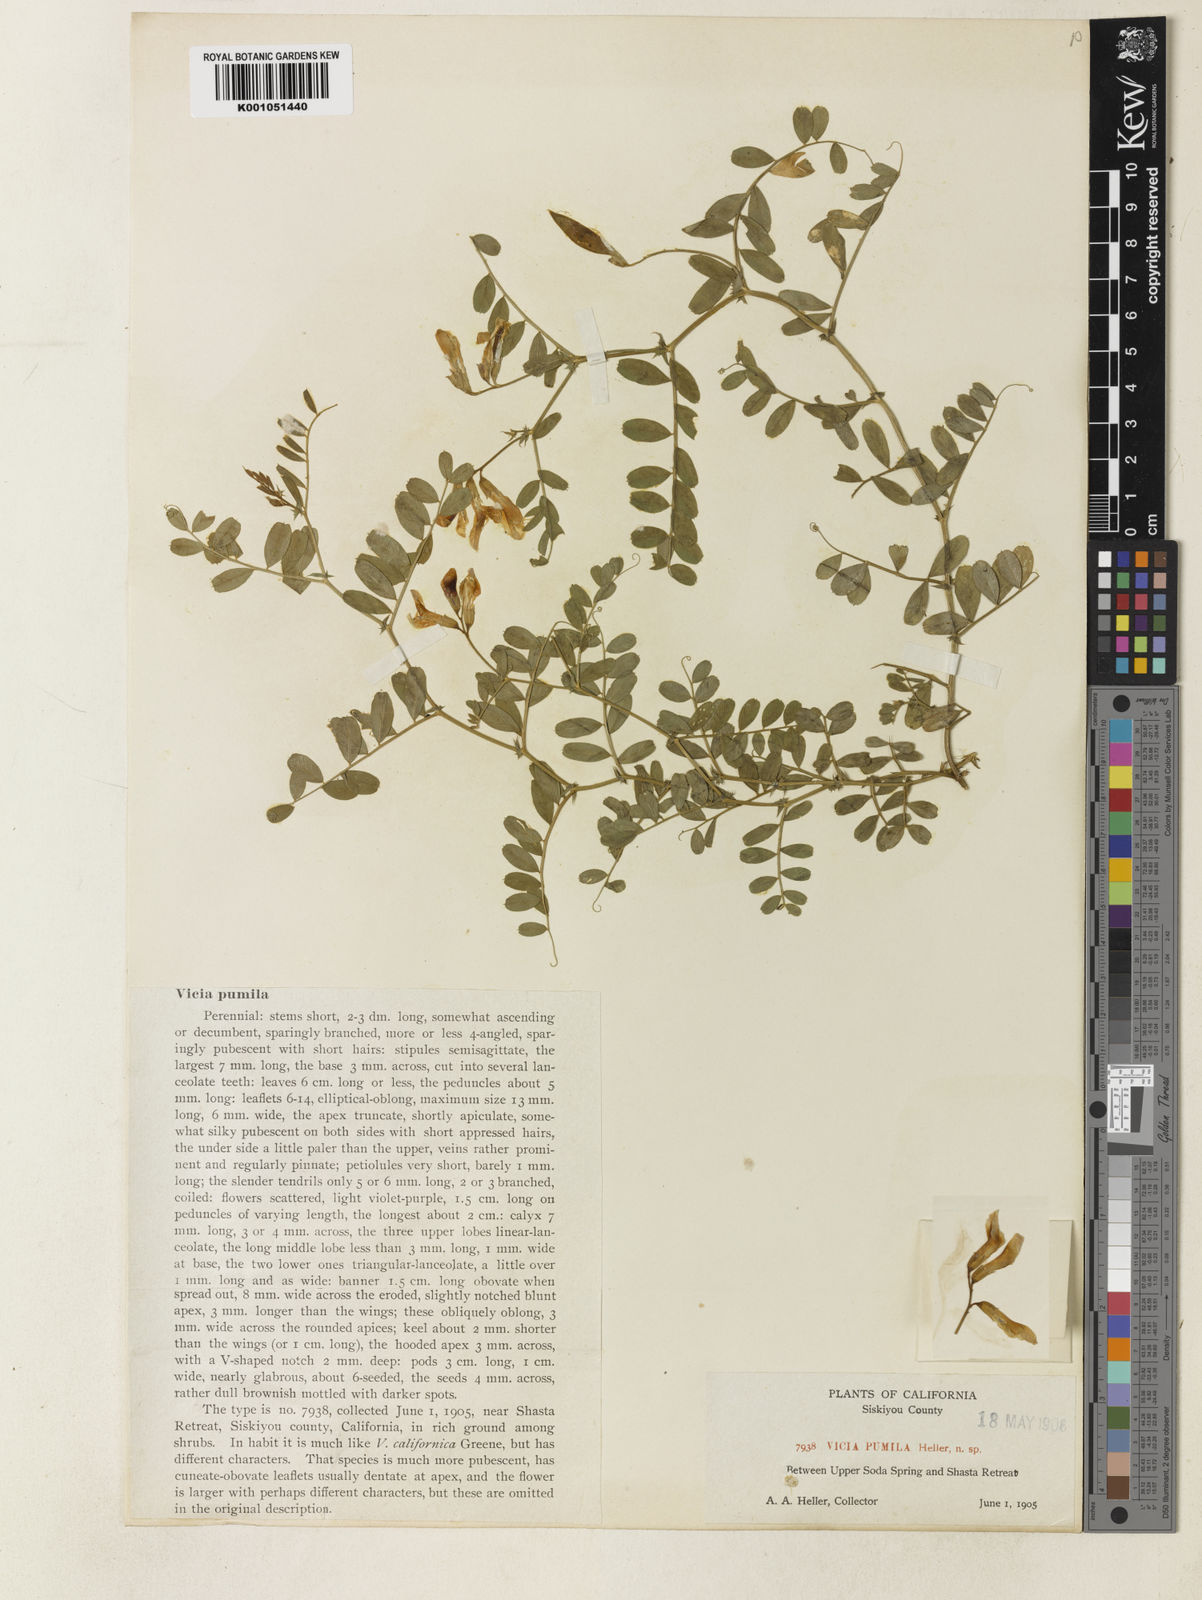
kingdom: Plantae
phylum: Tracheophyta
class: Magnoliopsida
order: Fabales
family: Fabaceae
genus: Vicia
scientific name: Vicia americana
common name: American vetch
